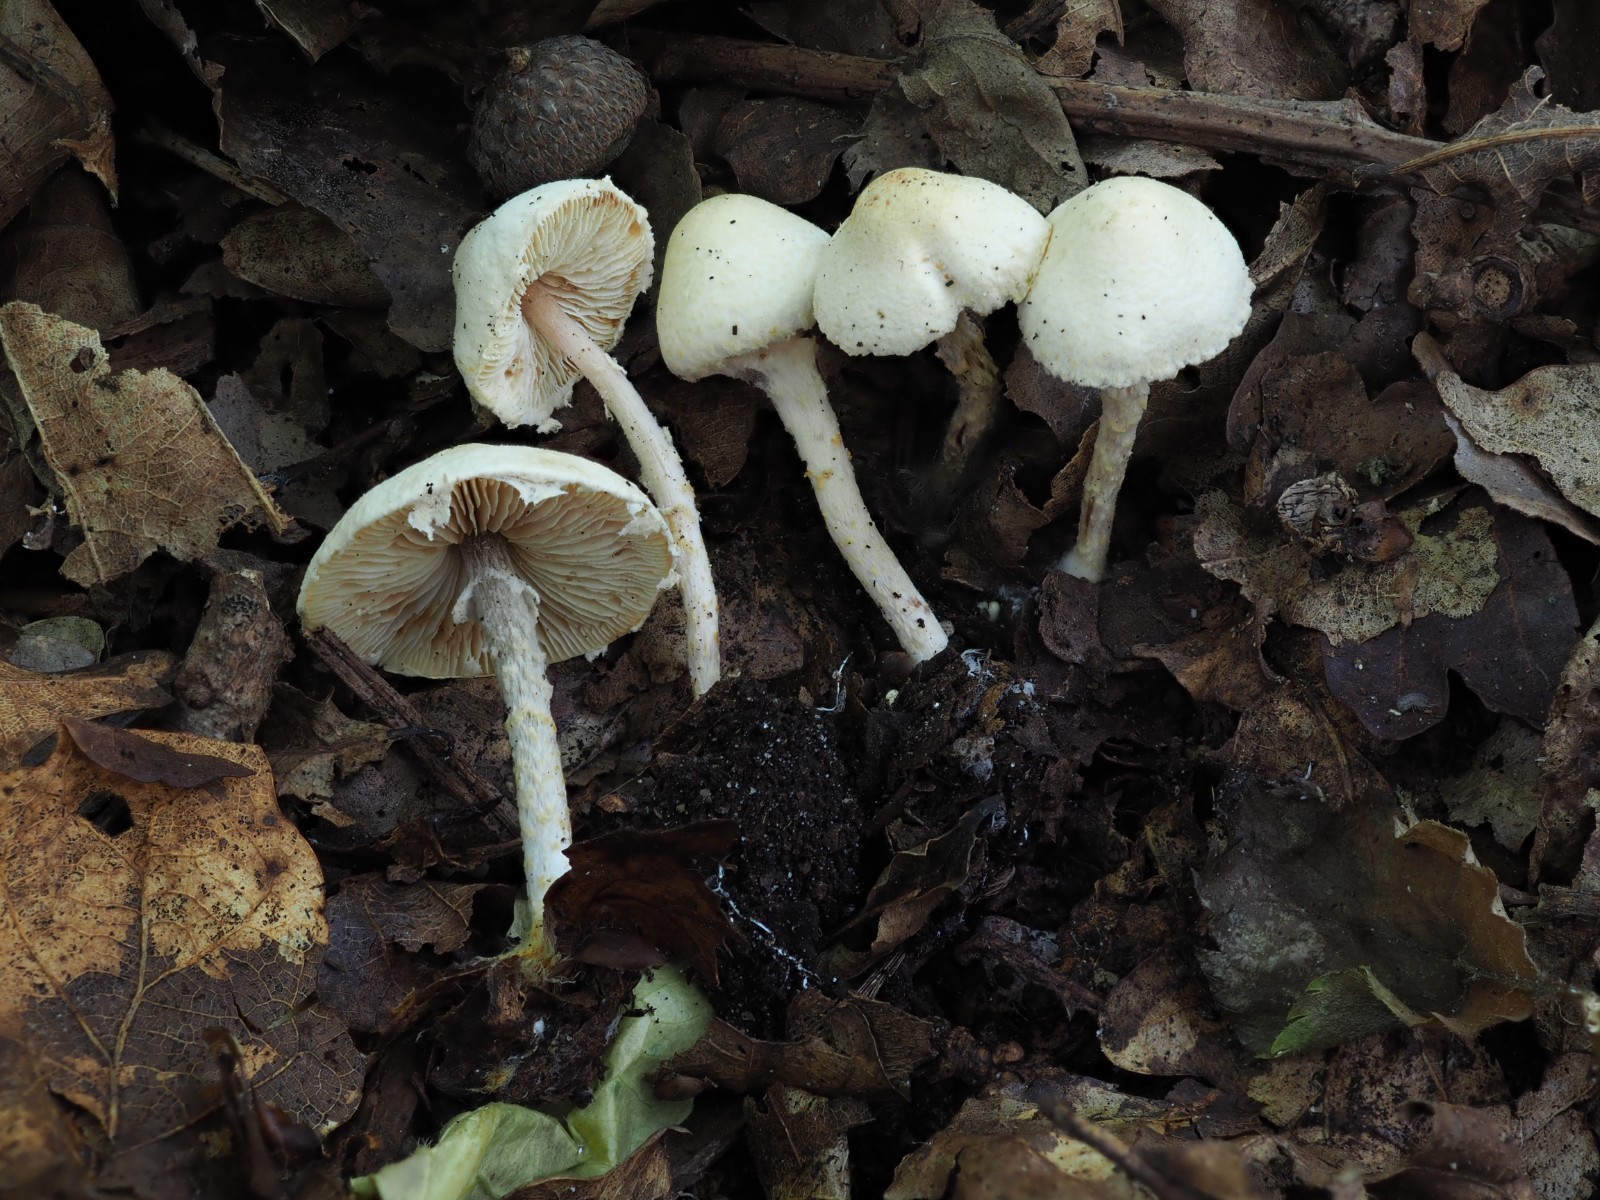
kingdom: Fungi
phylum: Basidiomycota
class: Agaricomycetes
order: Agaricales
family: Agaricaceae
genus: Lepiota
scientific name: Lepiota subalba
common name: hvidlig parasolhat
